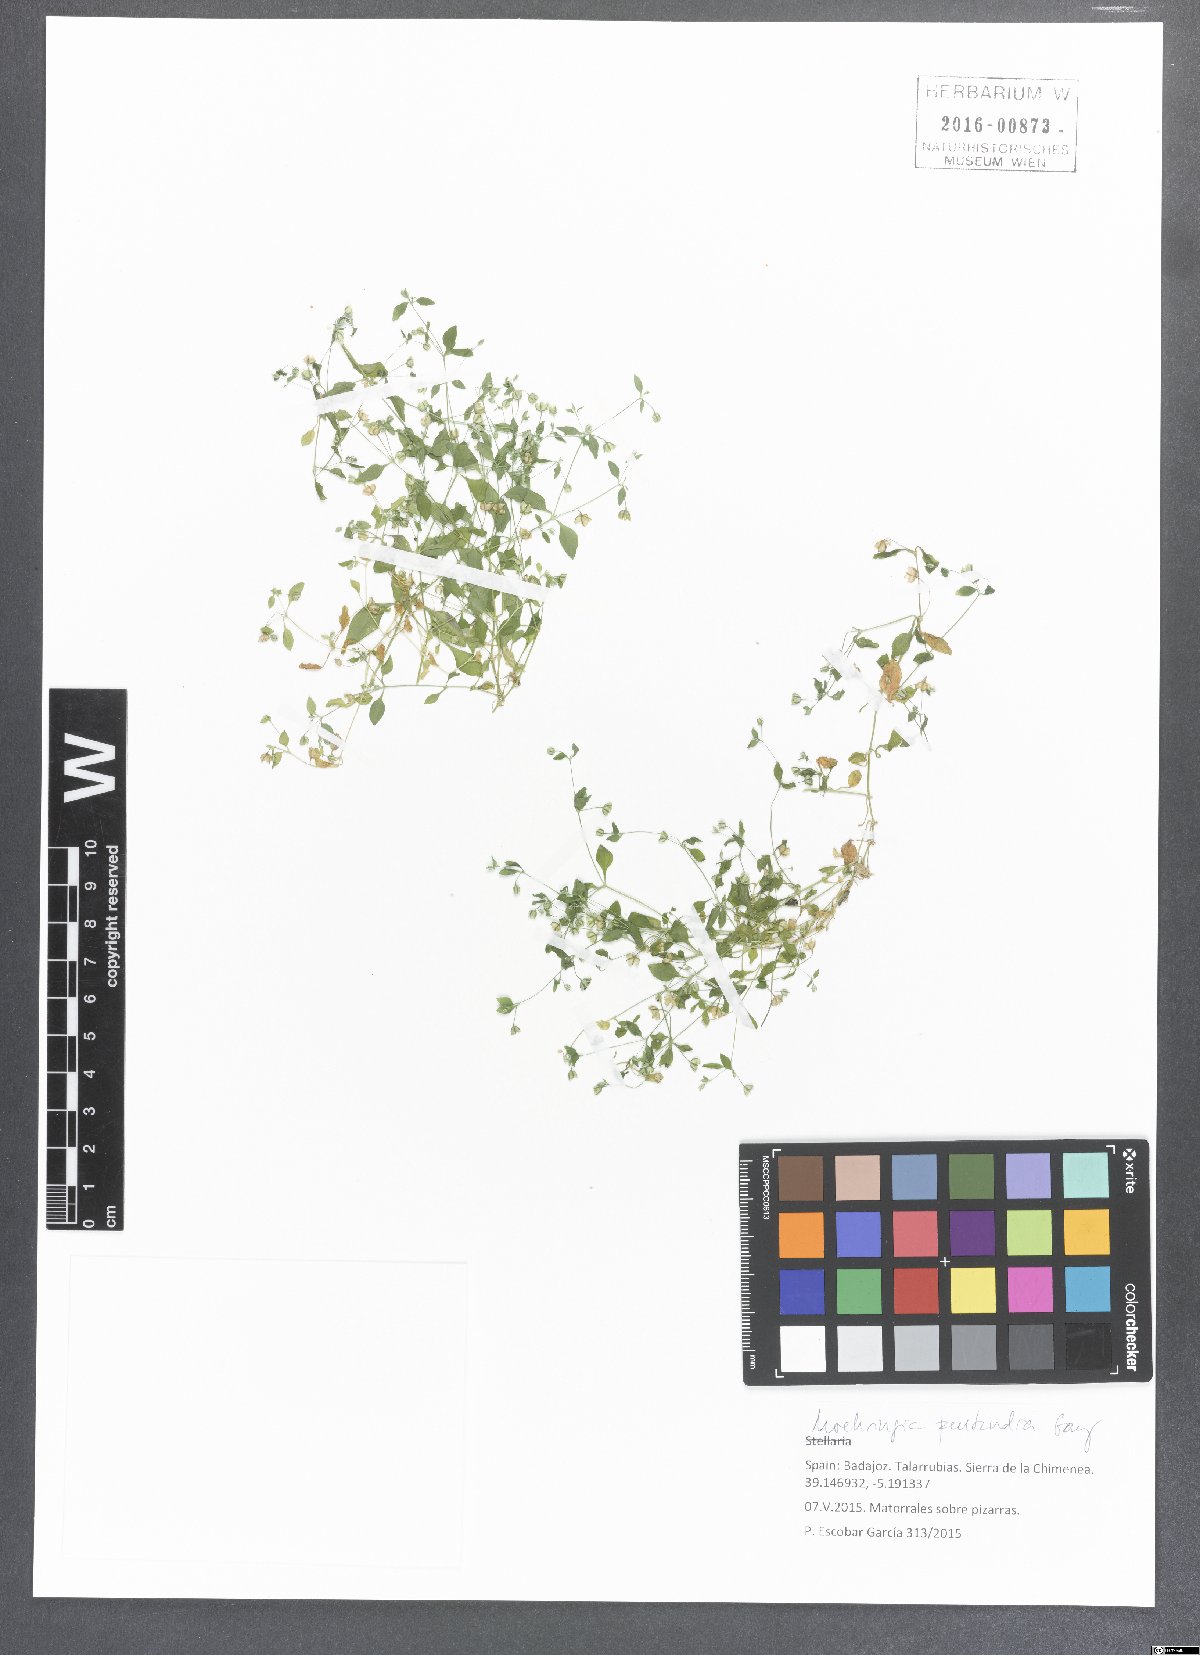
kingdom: Plantae
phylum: Tracheophyta
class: Magnoliopsida
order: Caryophyllales
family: Caryophyllaceae
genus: Moehringia
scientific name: Moehringia pentandra
